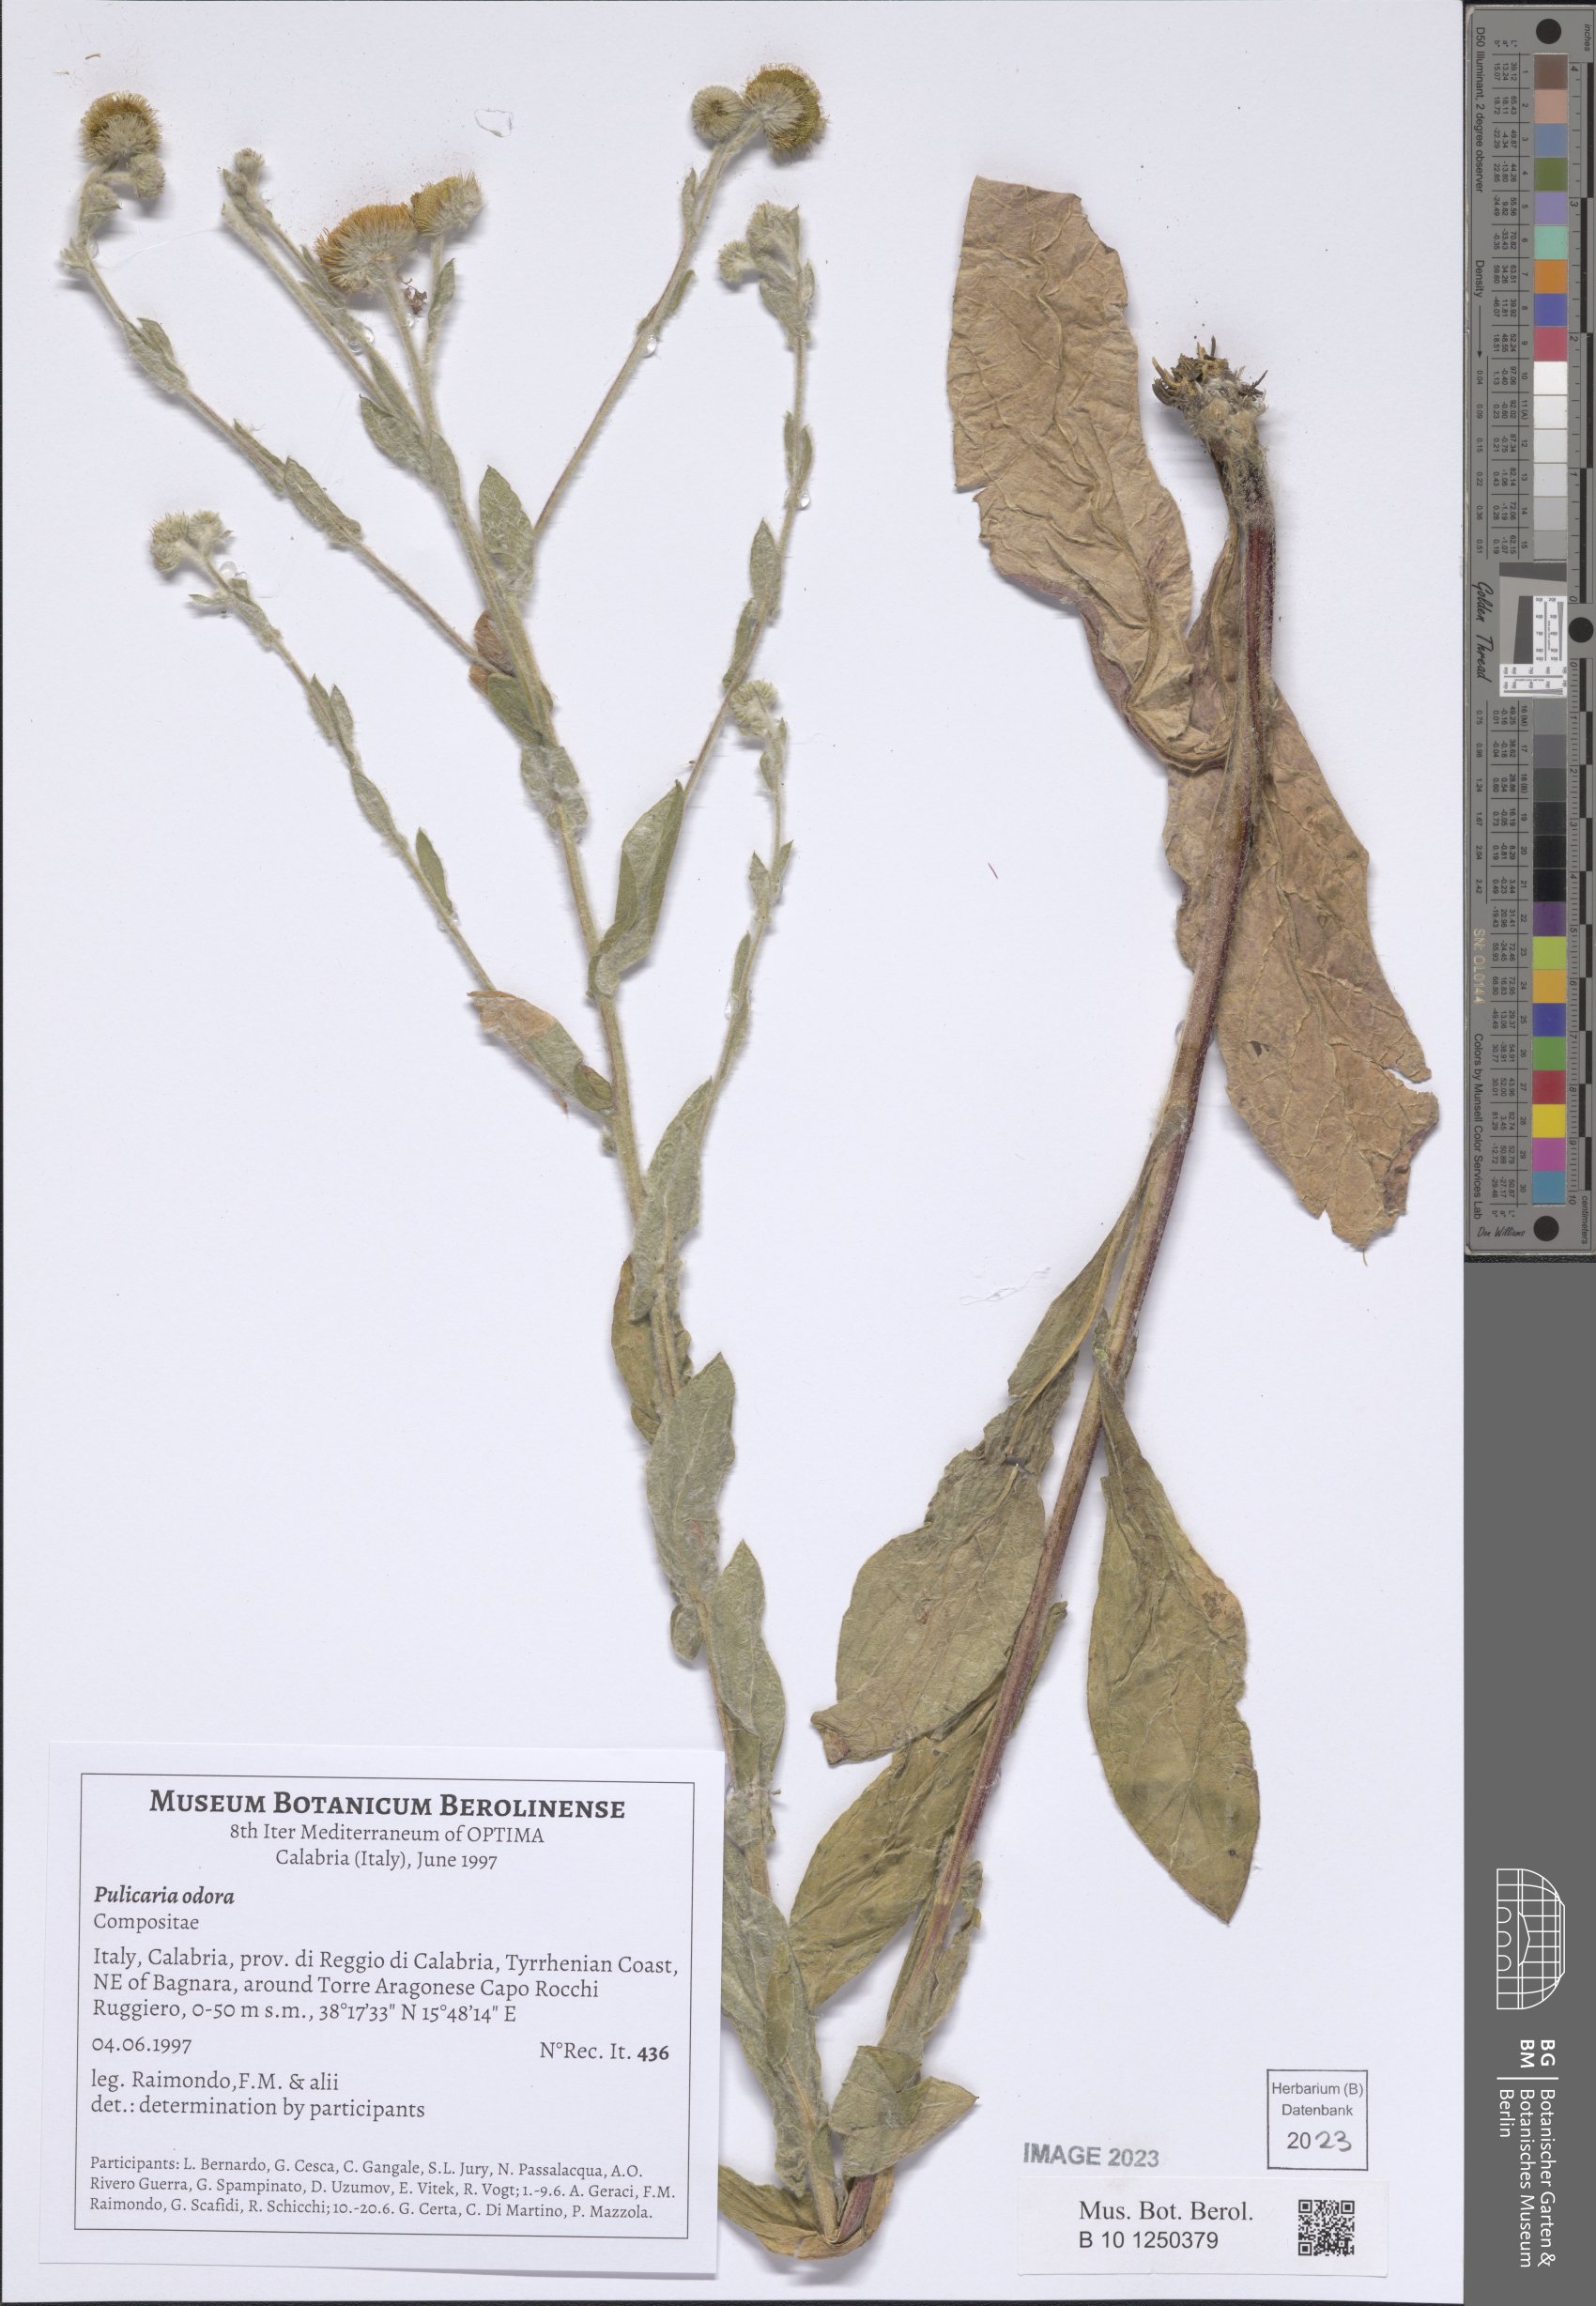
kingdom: Plantae
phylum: Tracheophyta
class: Magnoliopsida
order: Asterales
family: Asteraceae
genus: Pulicaria
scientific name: Pulicaria odora
